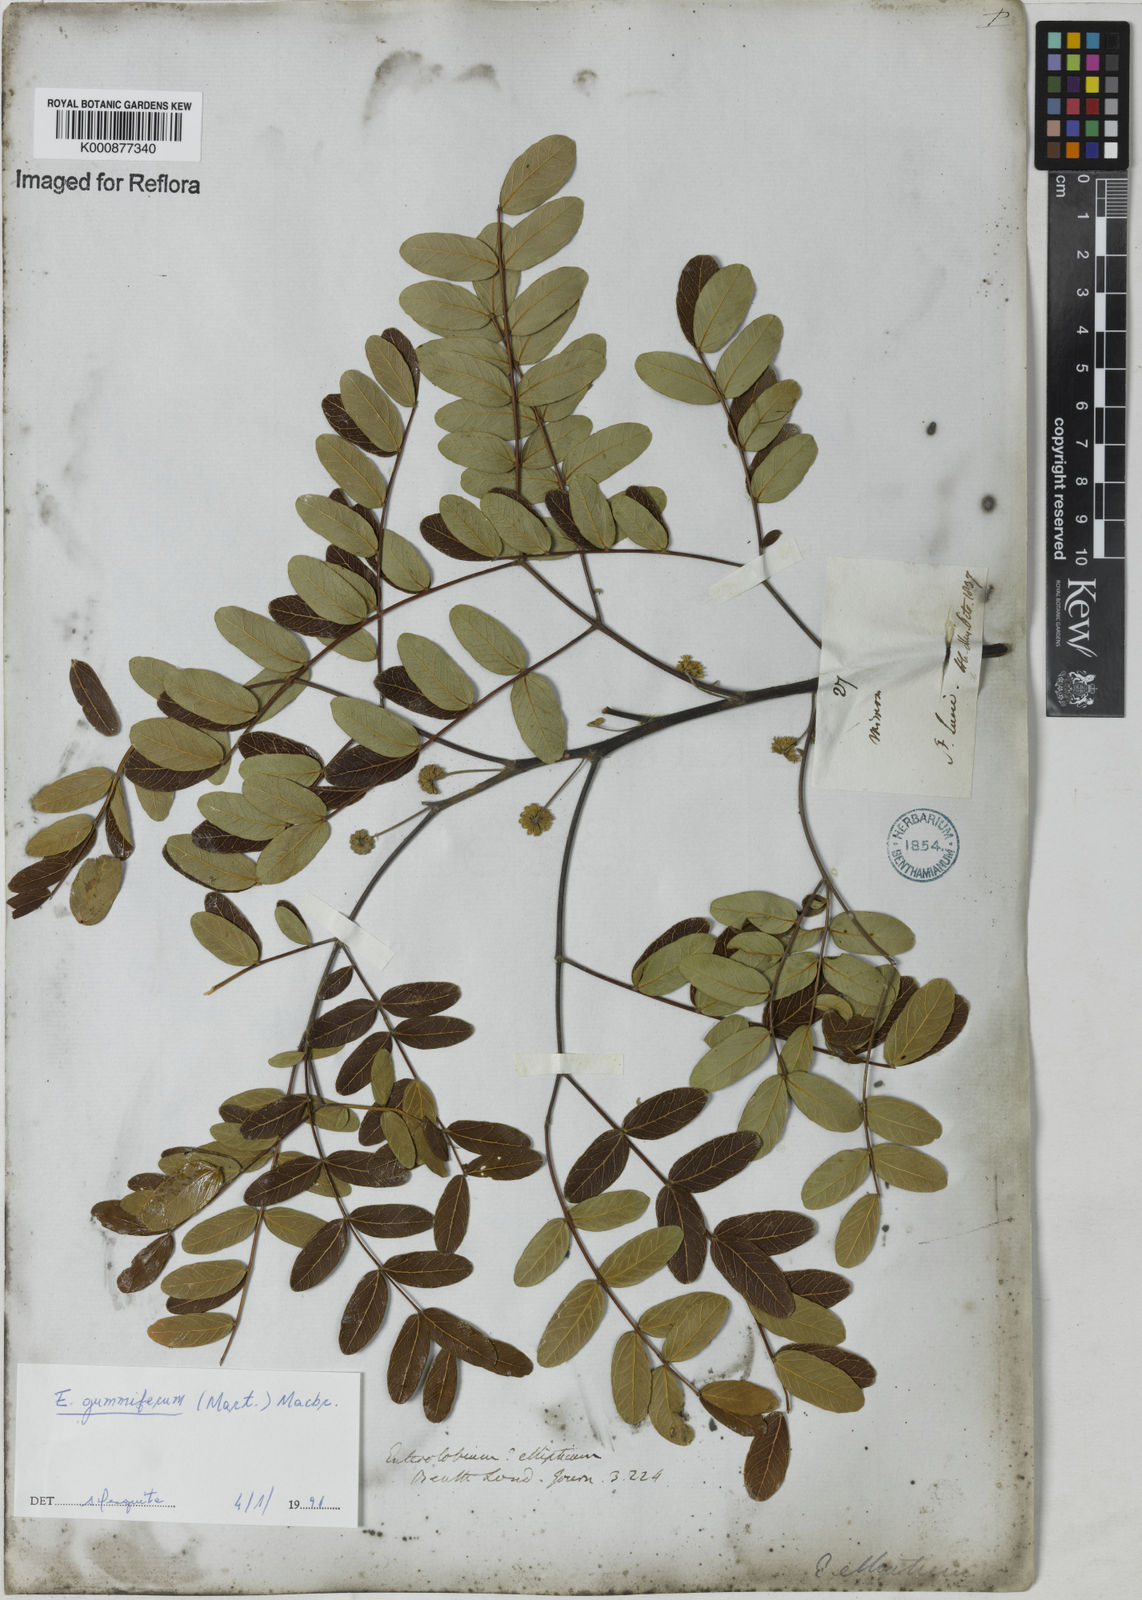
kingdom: Plantae
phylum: Tracheophyta
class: Magnoliopsida
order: Fabales
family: Fabaceae
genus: Enterolobium
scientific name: Enterolobium gummiferum
